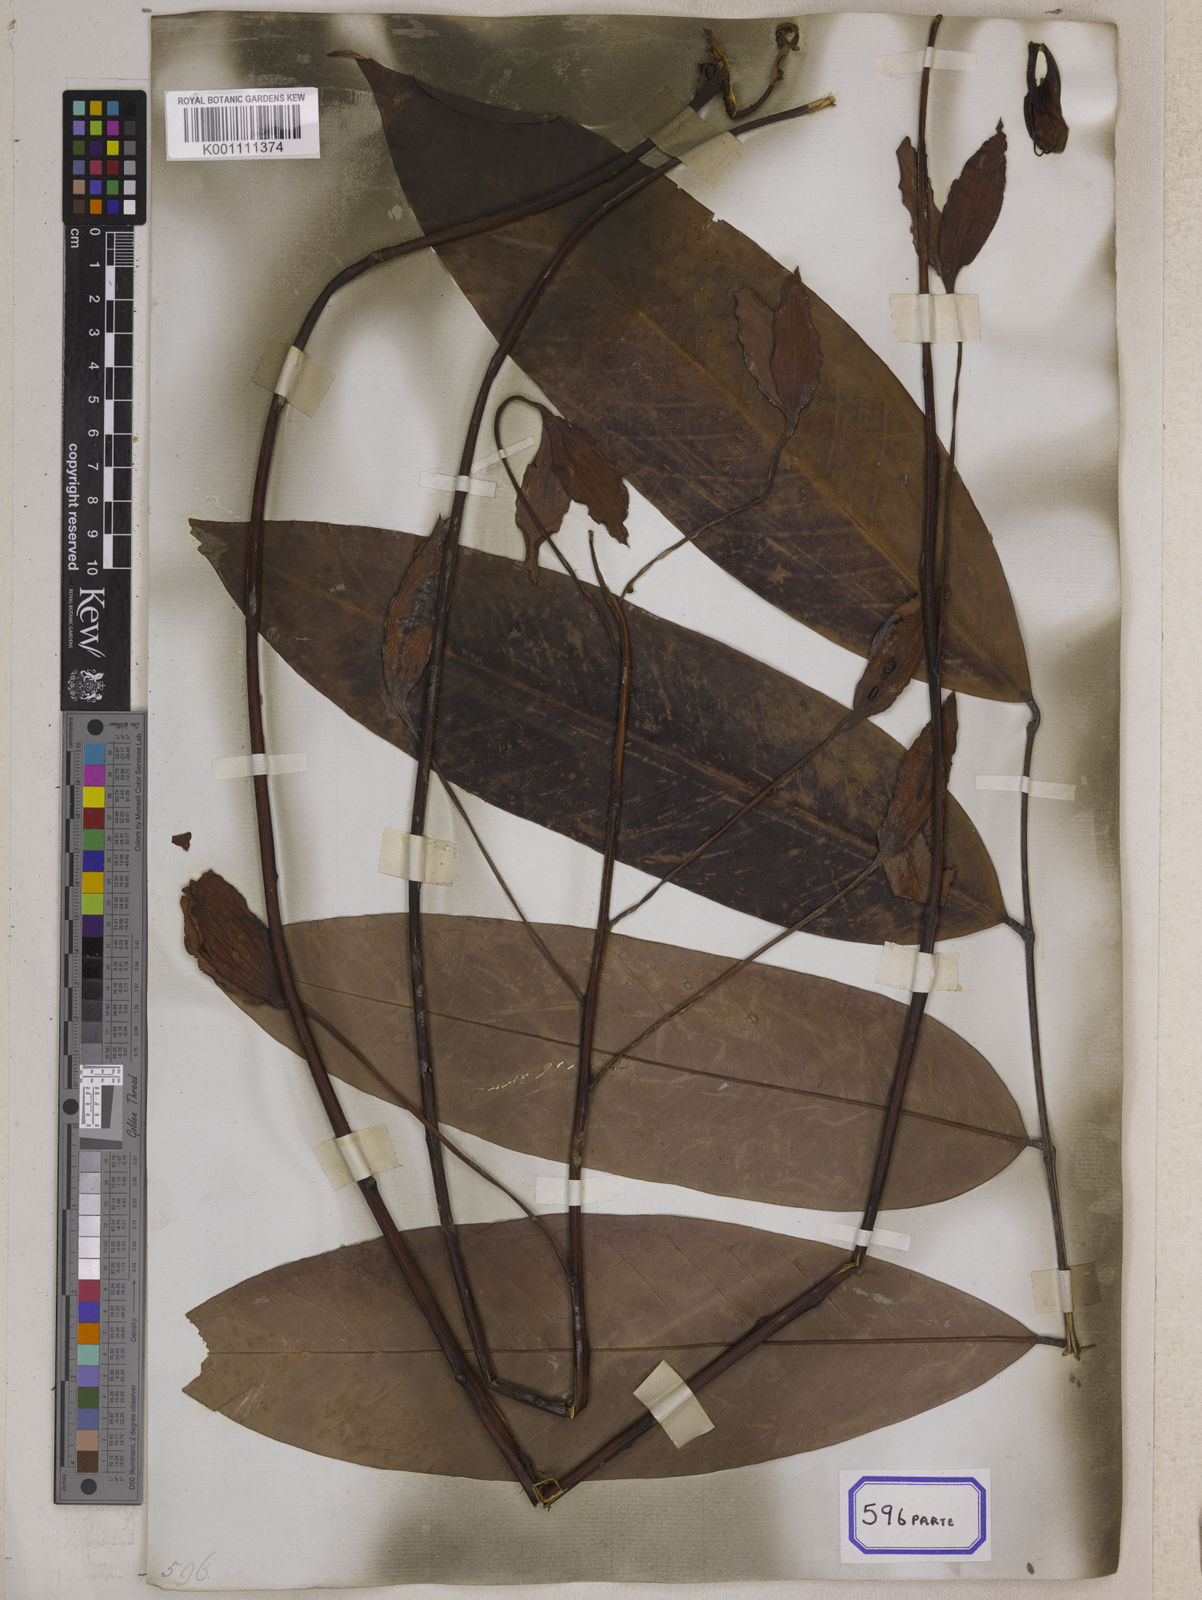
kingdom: Plantae
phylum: Tracheophyta
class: Magnoliopsida
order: Fabales
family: Fabaceae
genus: Amherstia
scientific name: Amherstia nobilis
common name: Pride-of-burma
